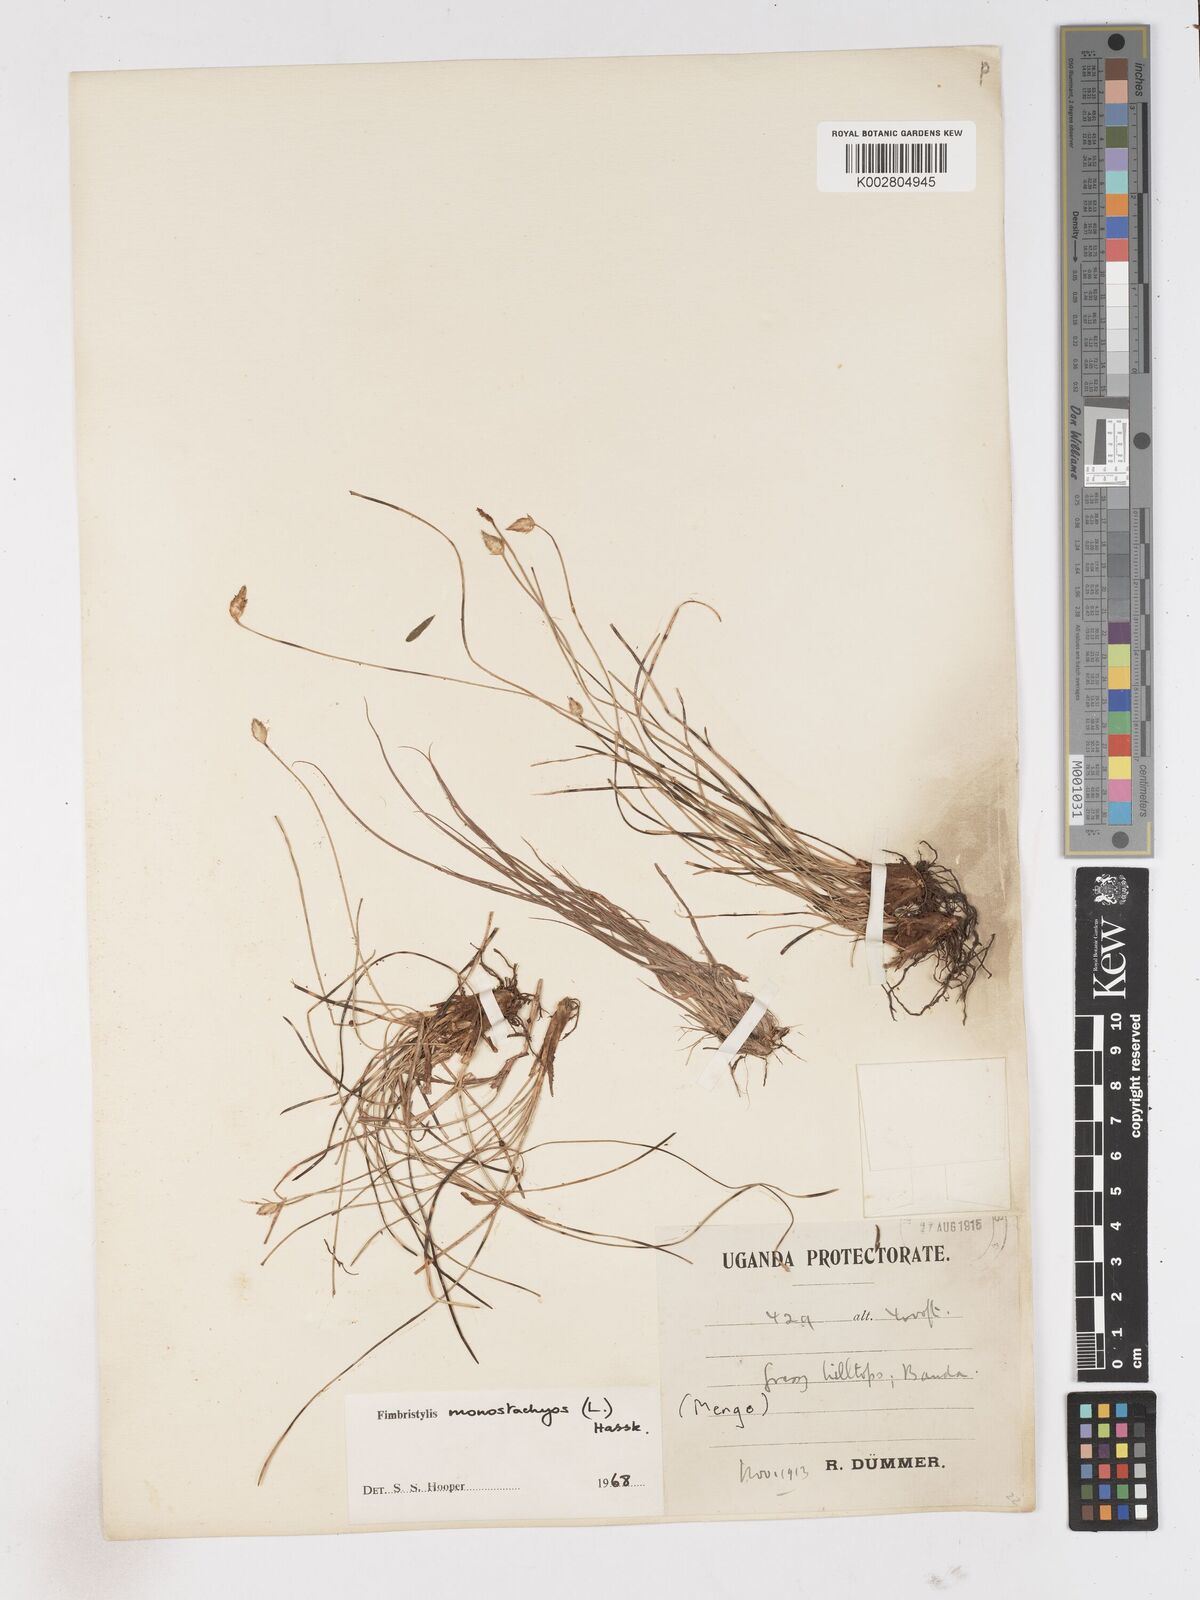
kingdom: Plantae
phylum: Tracheophyta
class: Liliopsida
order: Poales
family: Cyperaceae
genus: Abildgaardia
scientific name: Abildgaardia ovata
